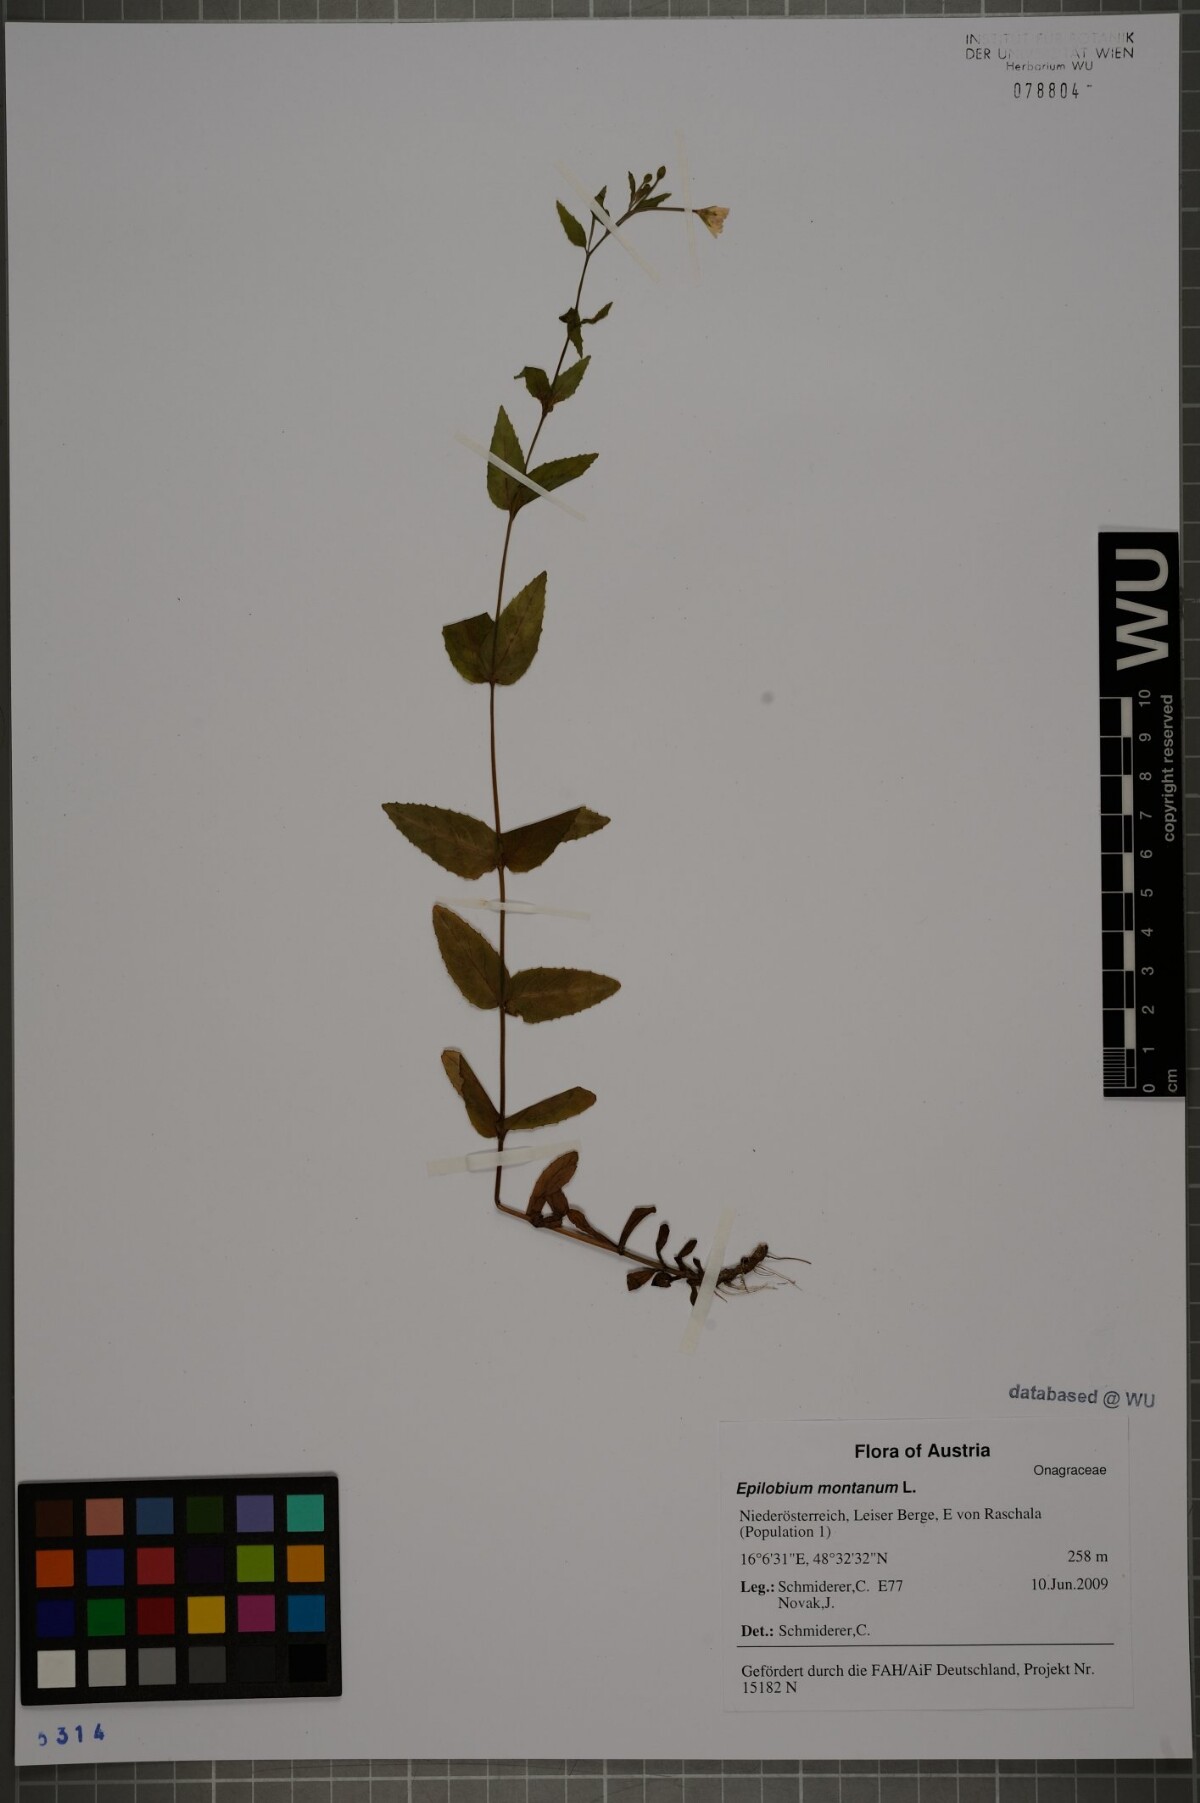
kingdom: Plantae
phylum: Tracheophyta
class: Magnoliopsida
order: Myrtales
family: Onagraceae
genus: Epilobium
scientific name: Epilobium montanum
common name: Broad-leaved willowherb
